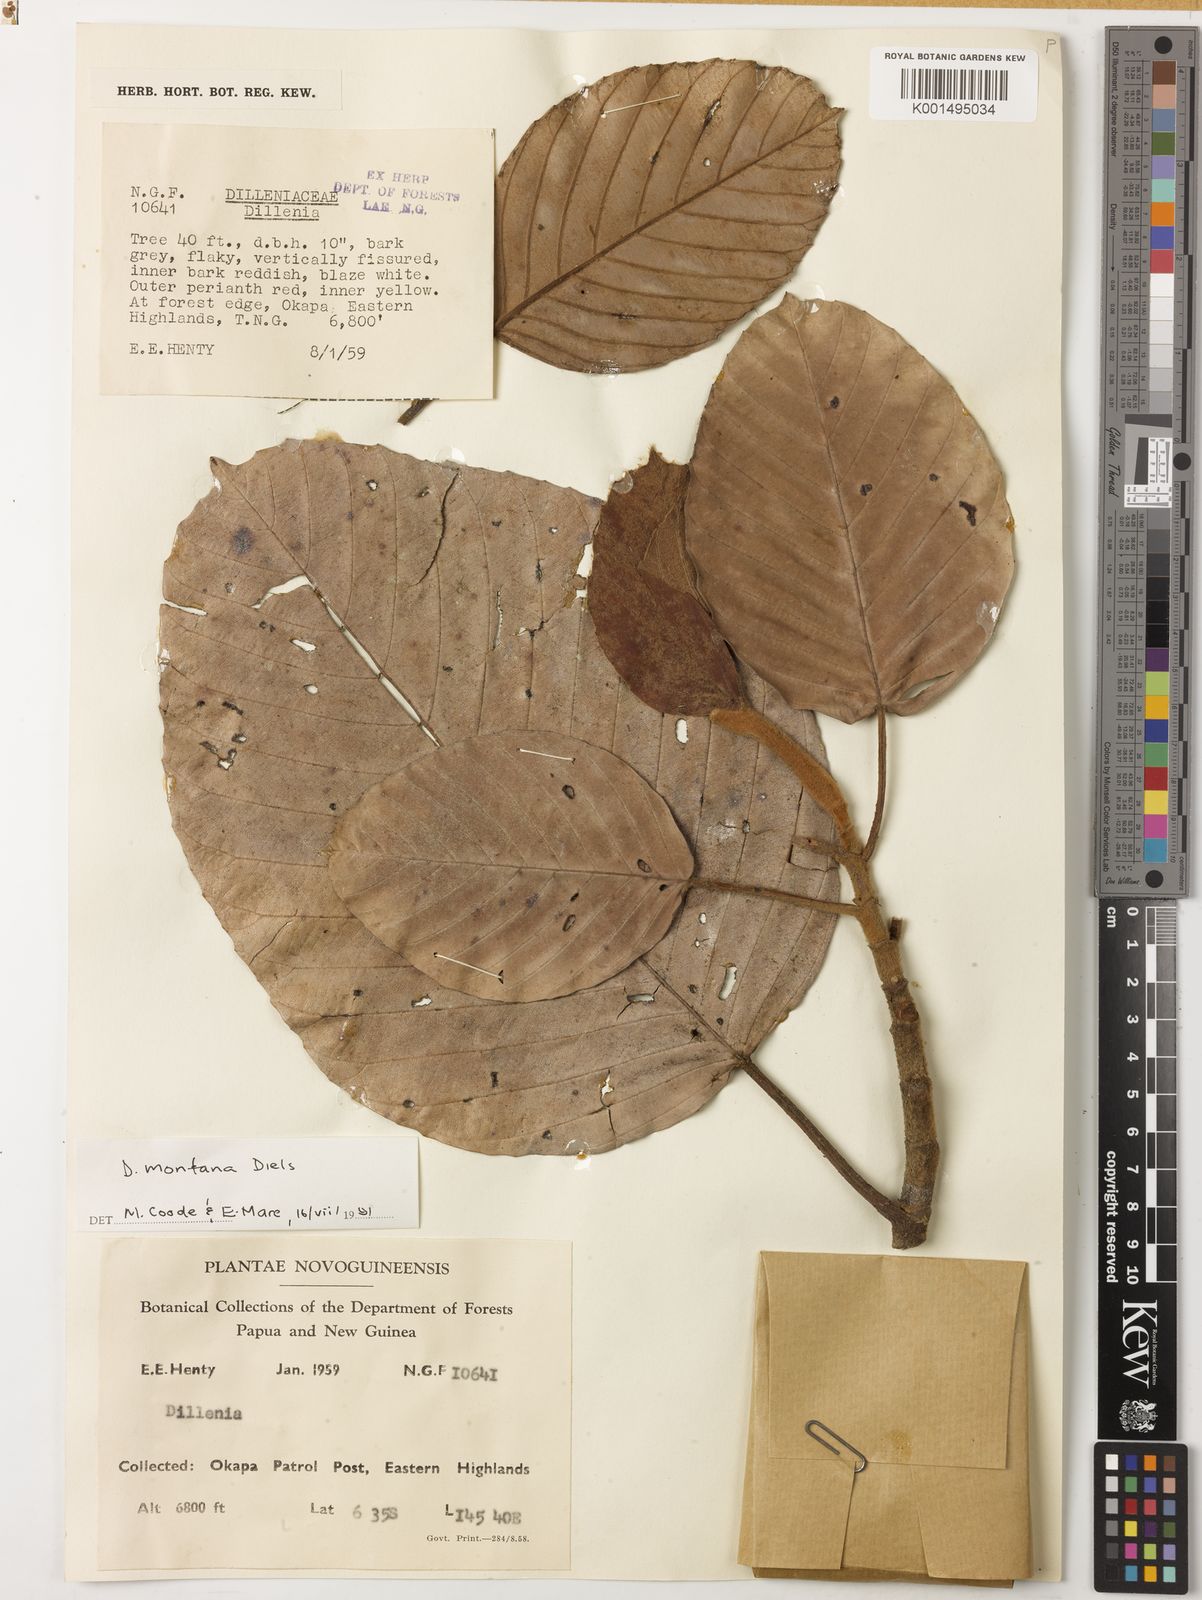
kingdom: Plantae
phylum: Tracheophyta
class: Magnoliopsida
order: Dilleniales
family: Dilleniaceae
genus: Dillenia
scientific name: Dillenia montana
